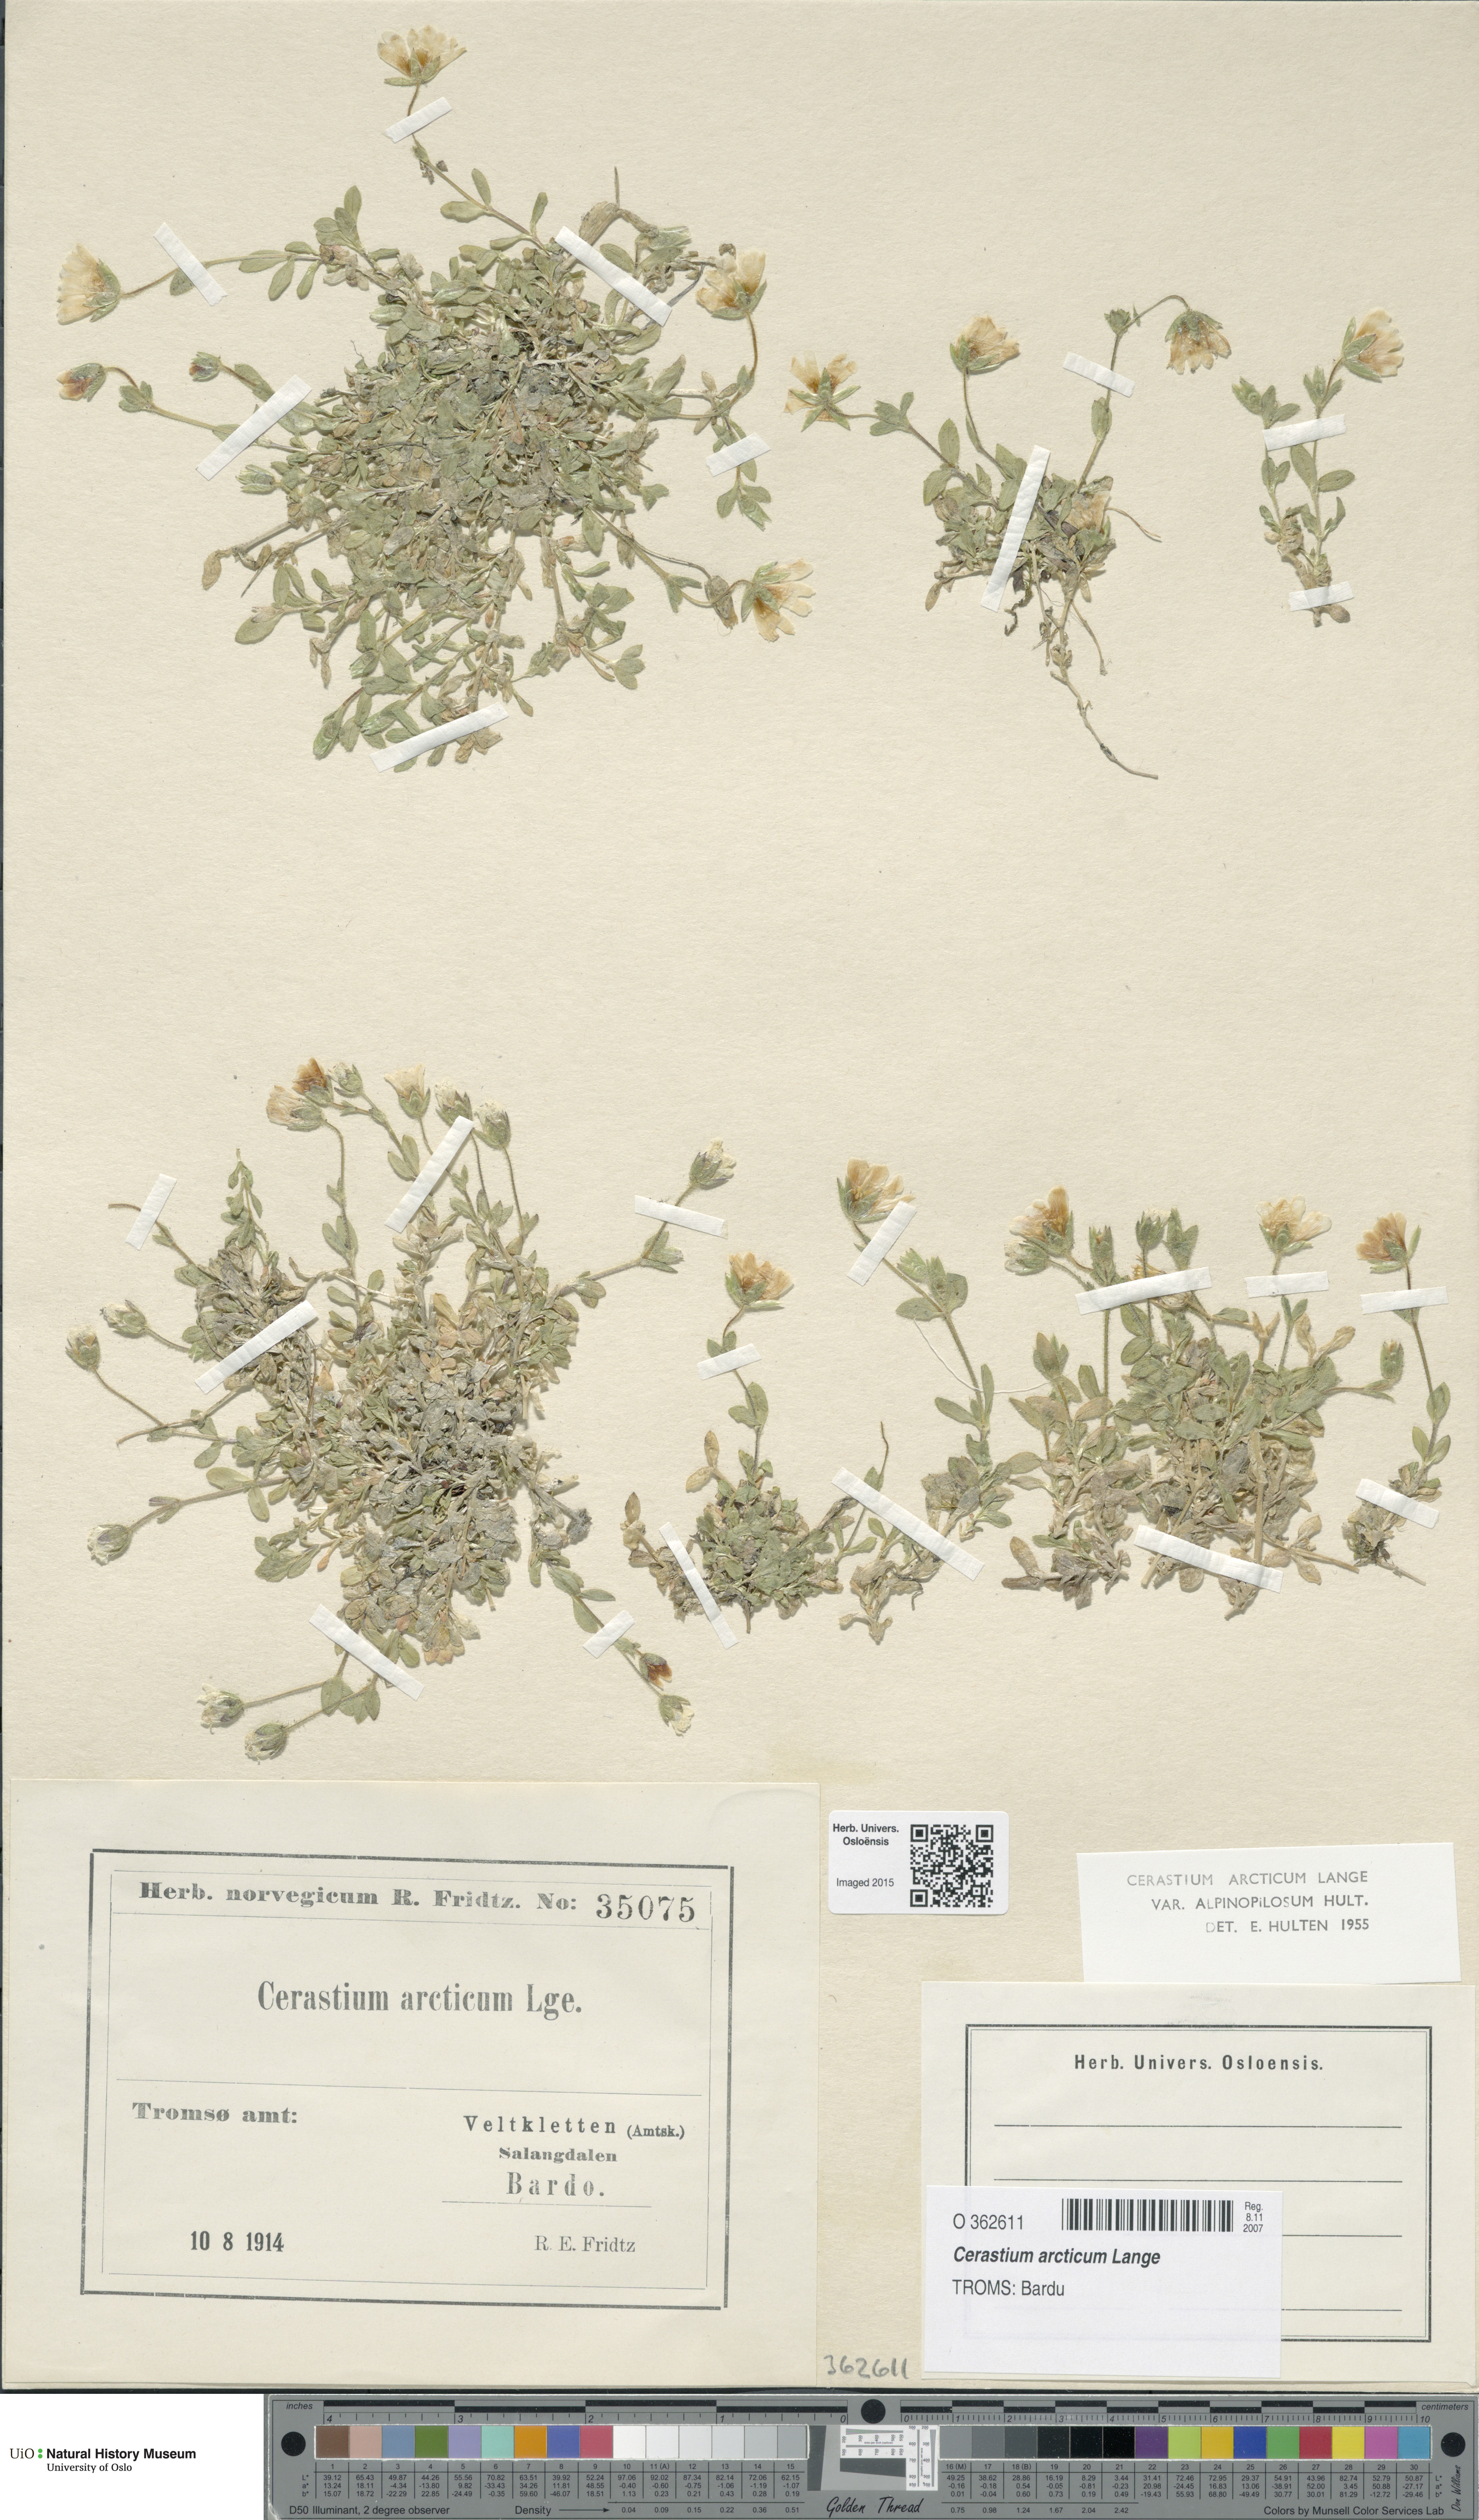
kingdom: Plantae
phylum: Tracheophyta
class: Magnoliopsida
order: Caryophyllales
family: Caryophyllaceae
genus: Cerastium
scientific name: Cerastium arcticum
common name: Arctic mouse-ear
